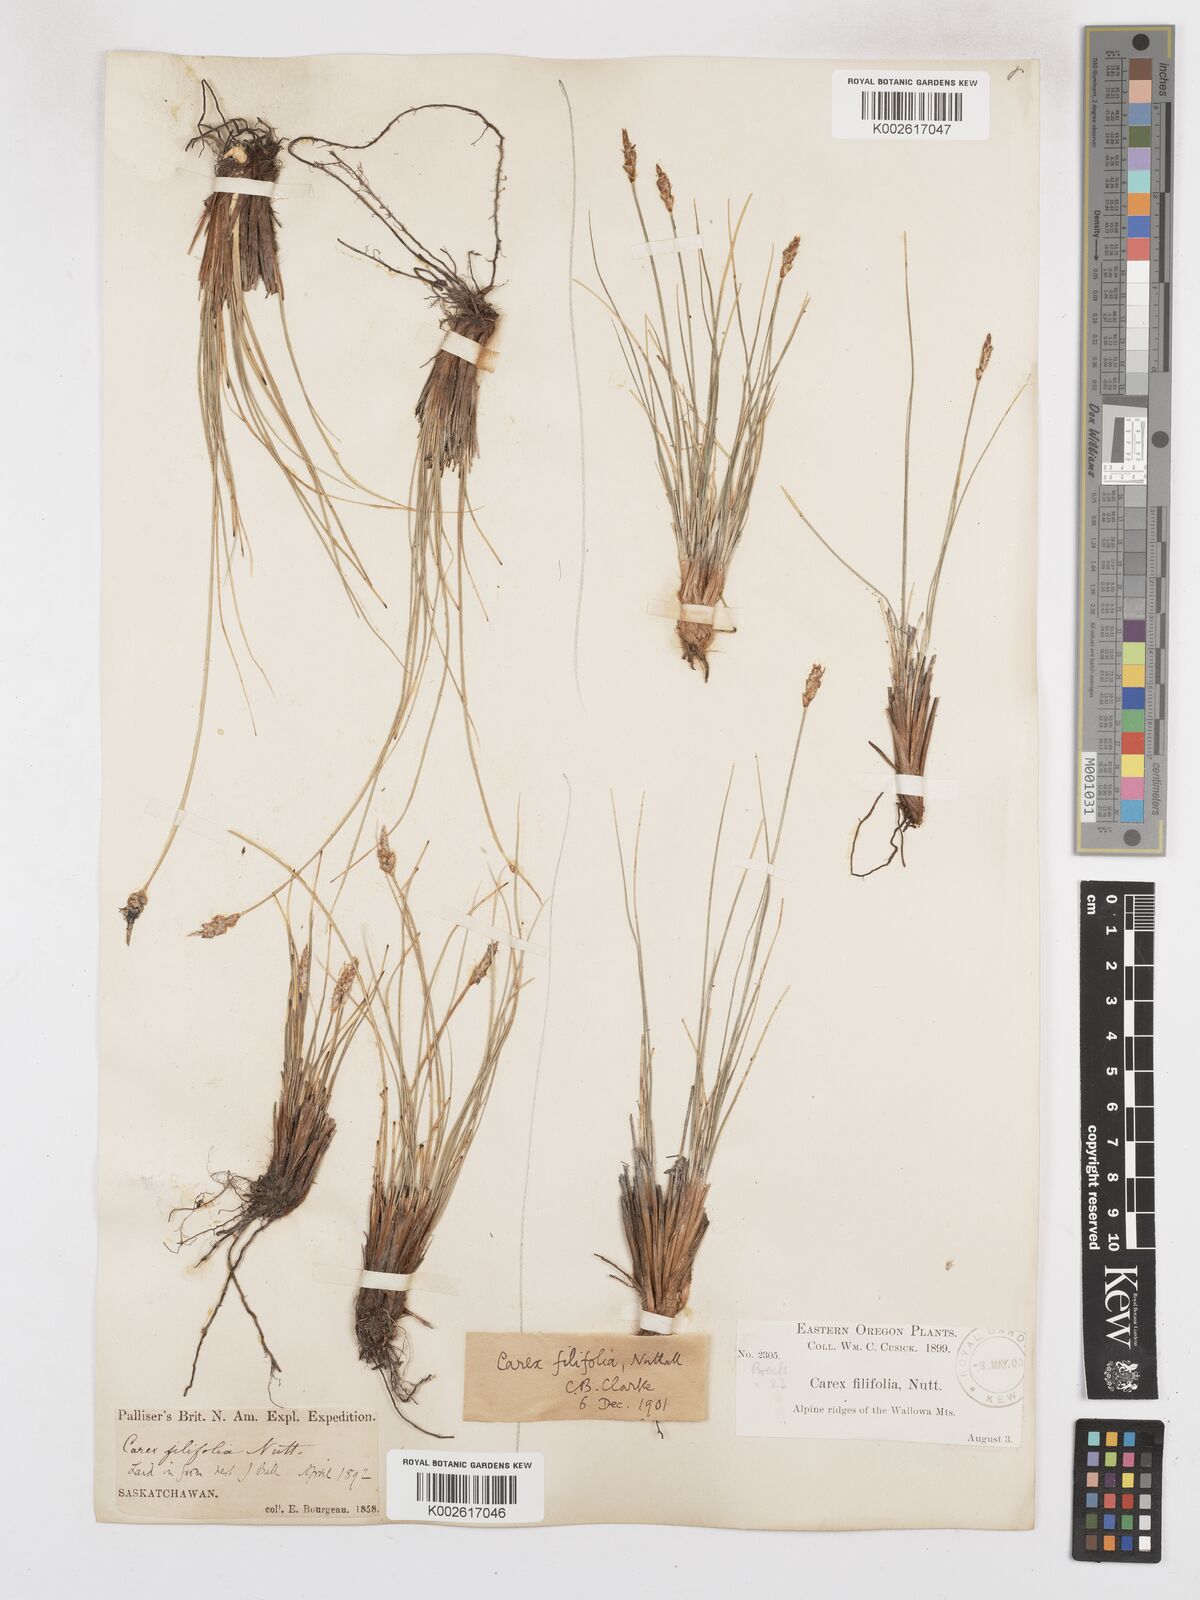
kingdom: Plantae
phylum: Tracheophyta
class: Liliopsida
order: Poales
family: Cyperaceae
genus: Carex
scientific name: Carex filifolia
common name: Threadleaf sedge
